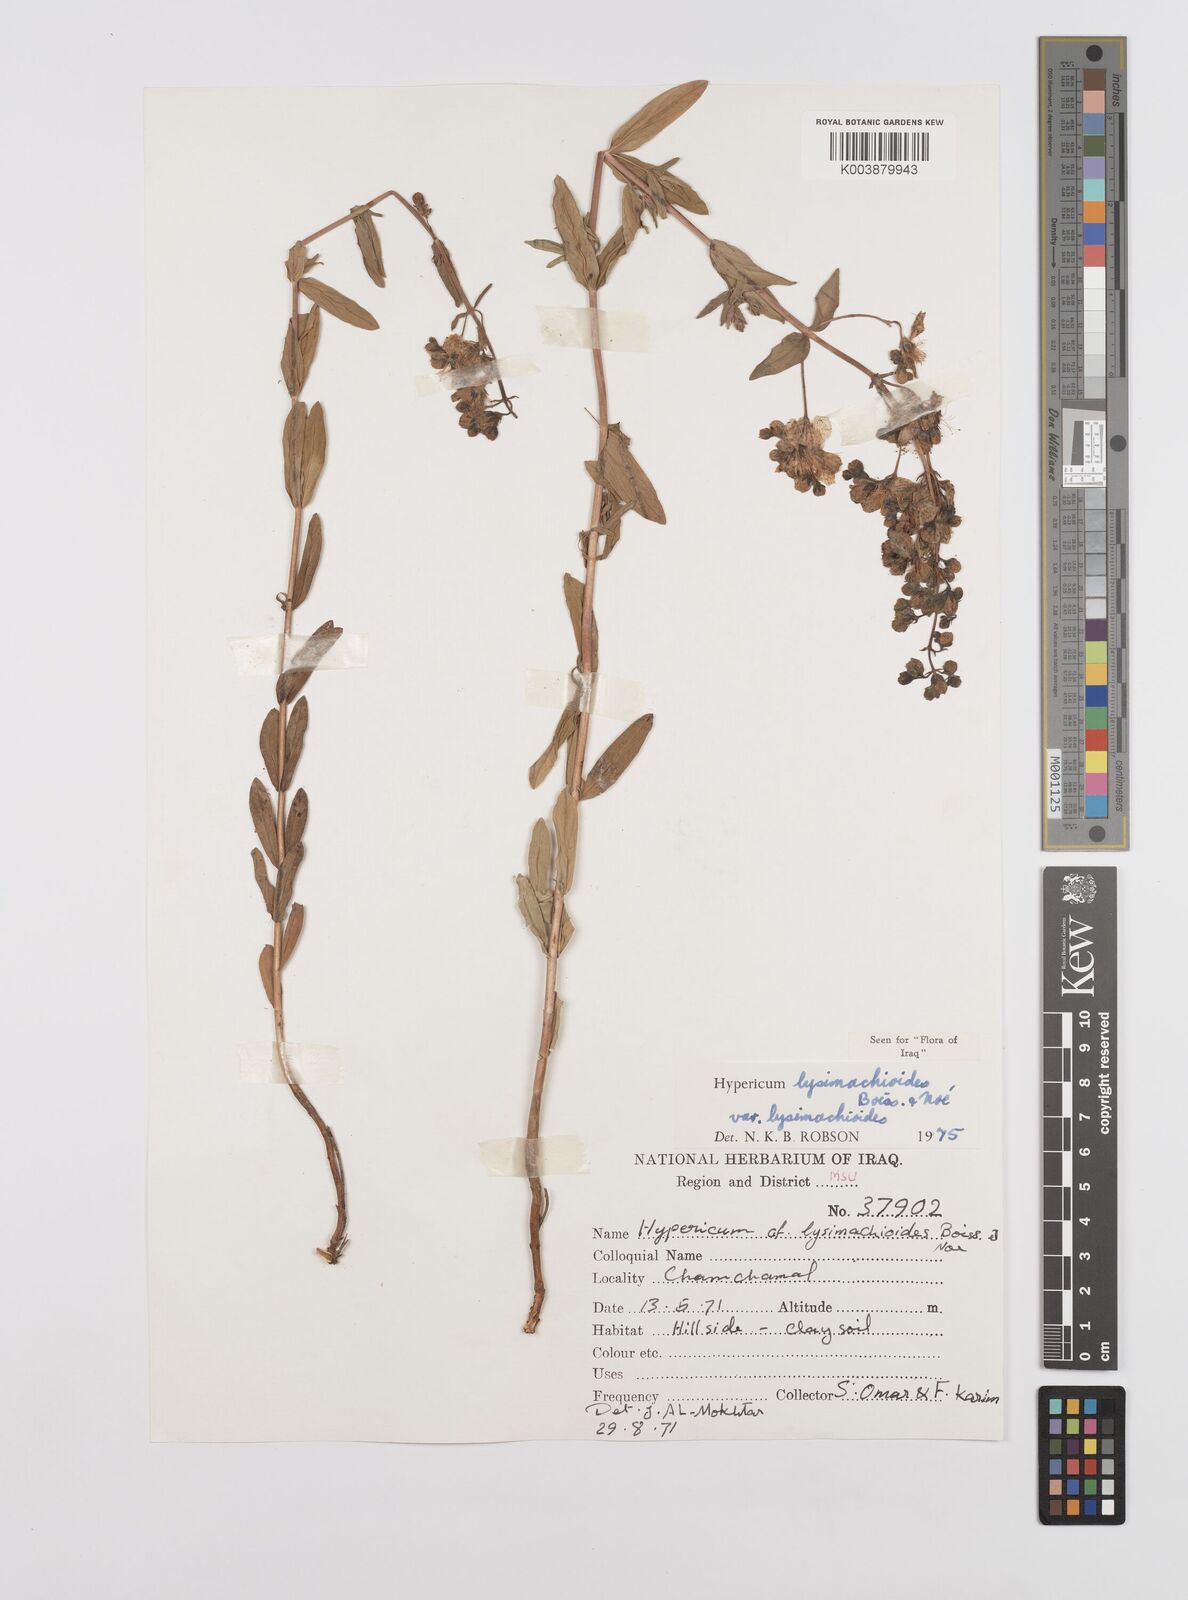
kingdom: Plantae
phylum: Tracheophyta
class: Magnoliopsida
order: Malpighiales
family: Hypericaceae
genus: Hypericum
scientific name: Hypericum
